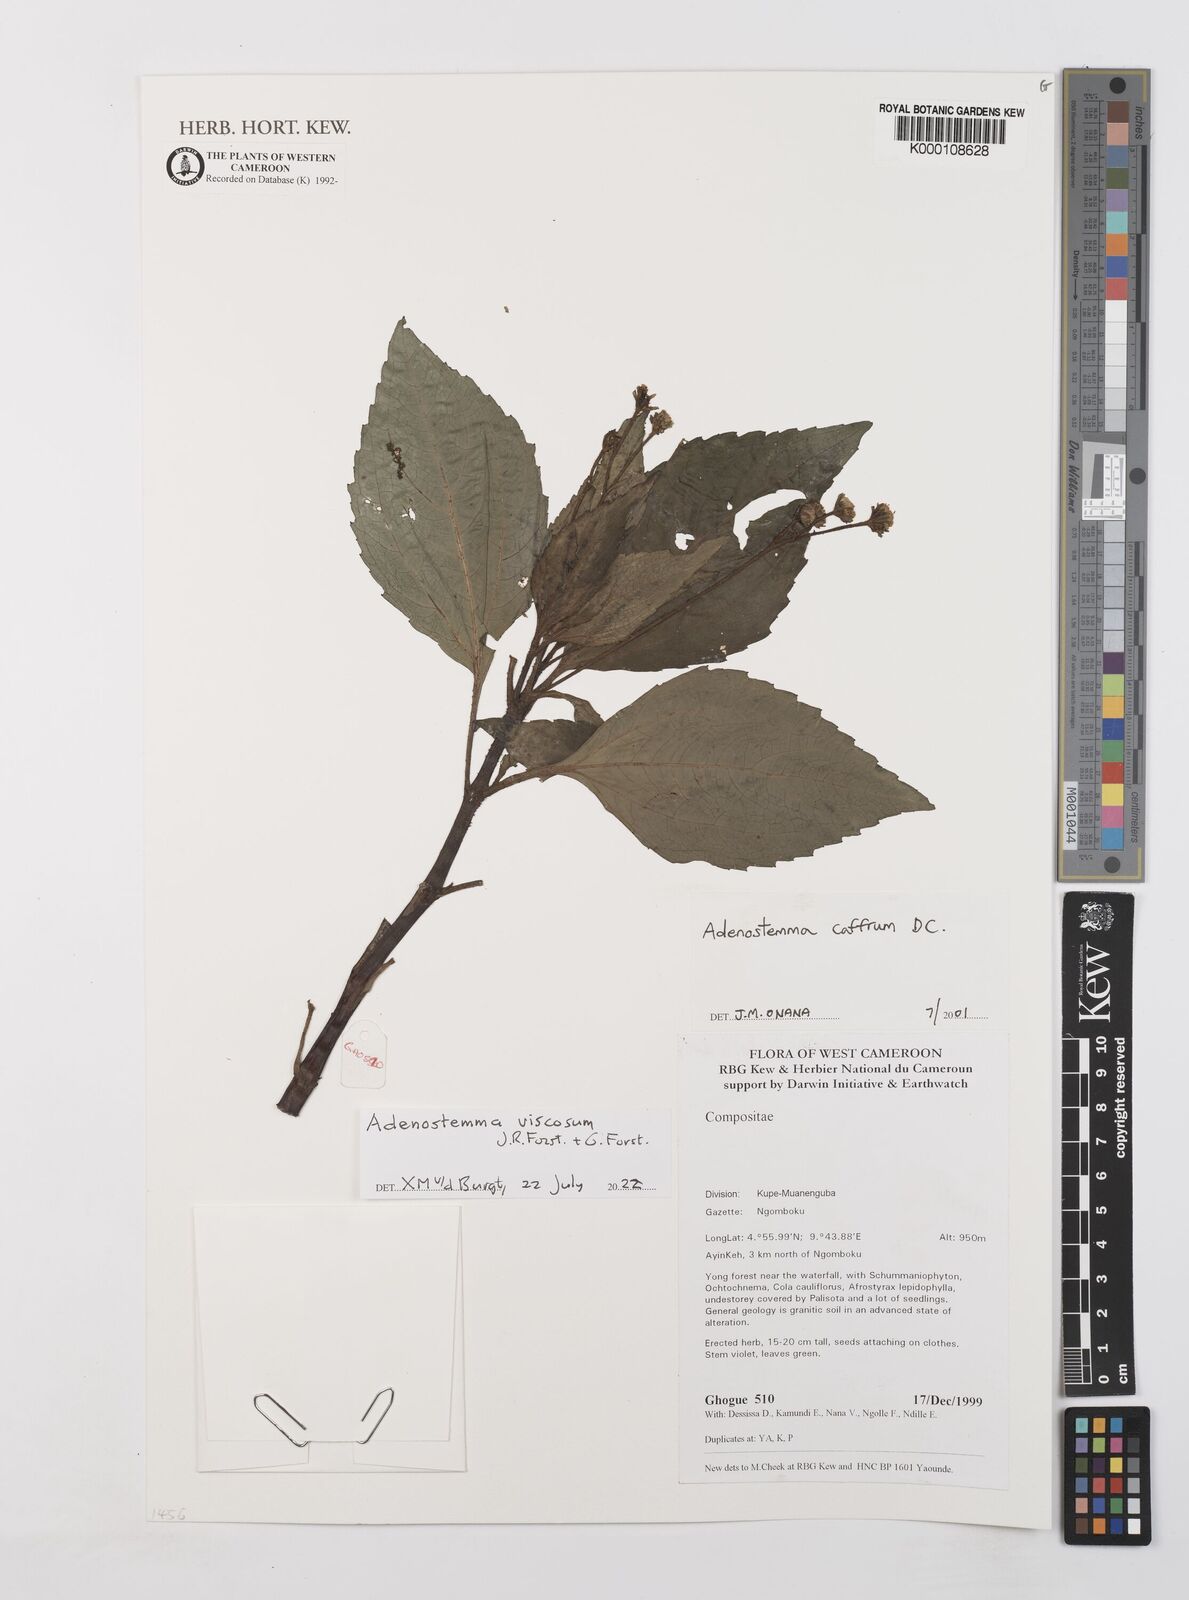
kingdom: Plantae
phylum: Tracheophyta
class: Magnoliopsida
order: Asterales
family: Asteraceae
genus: Adenostemma
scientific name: Adenostemma caffrum
